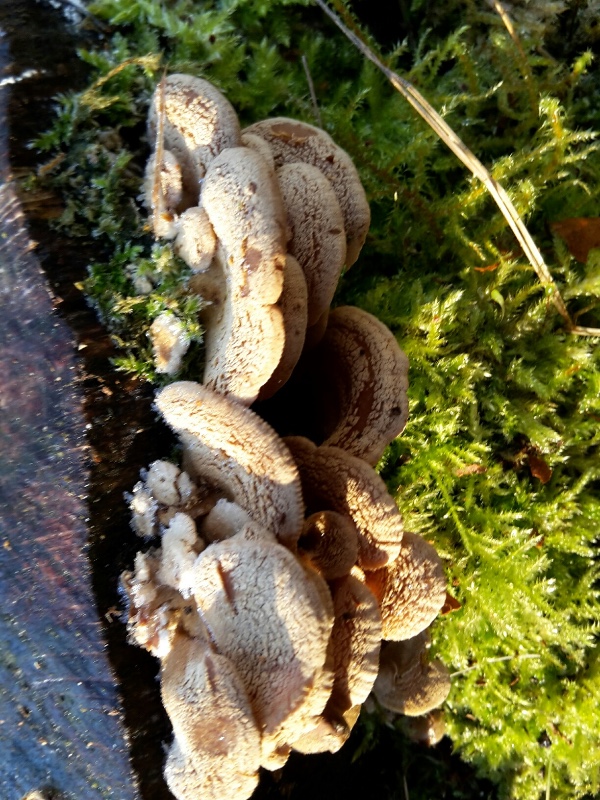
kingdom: Fungi
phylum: Basidiomycota
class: Agaricomycetes
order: Agaricales
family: Mycenaceae
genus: Panellus
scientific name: Panellus stipticus
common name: kliddet epaulethat
